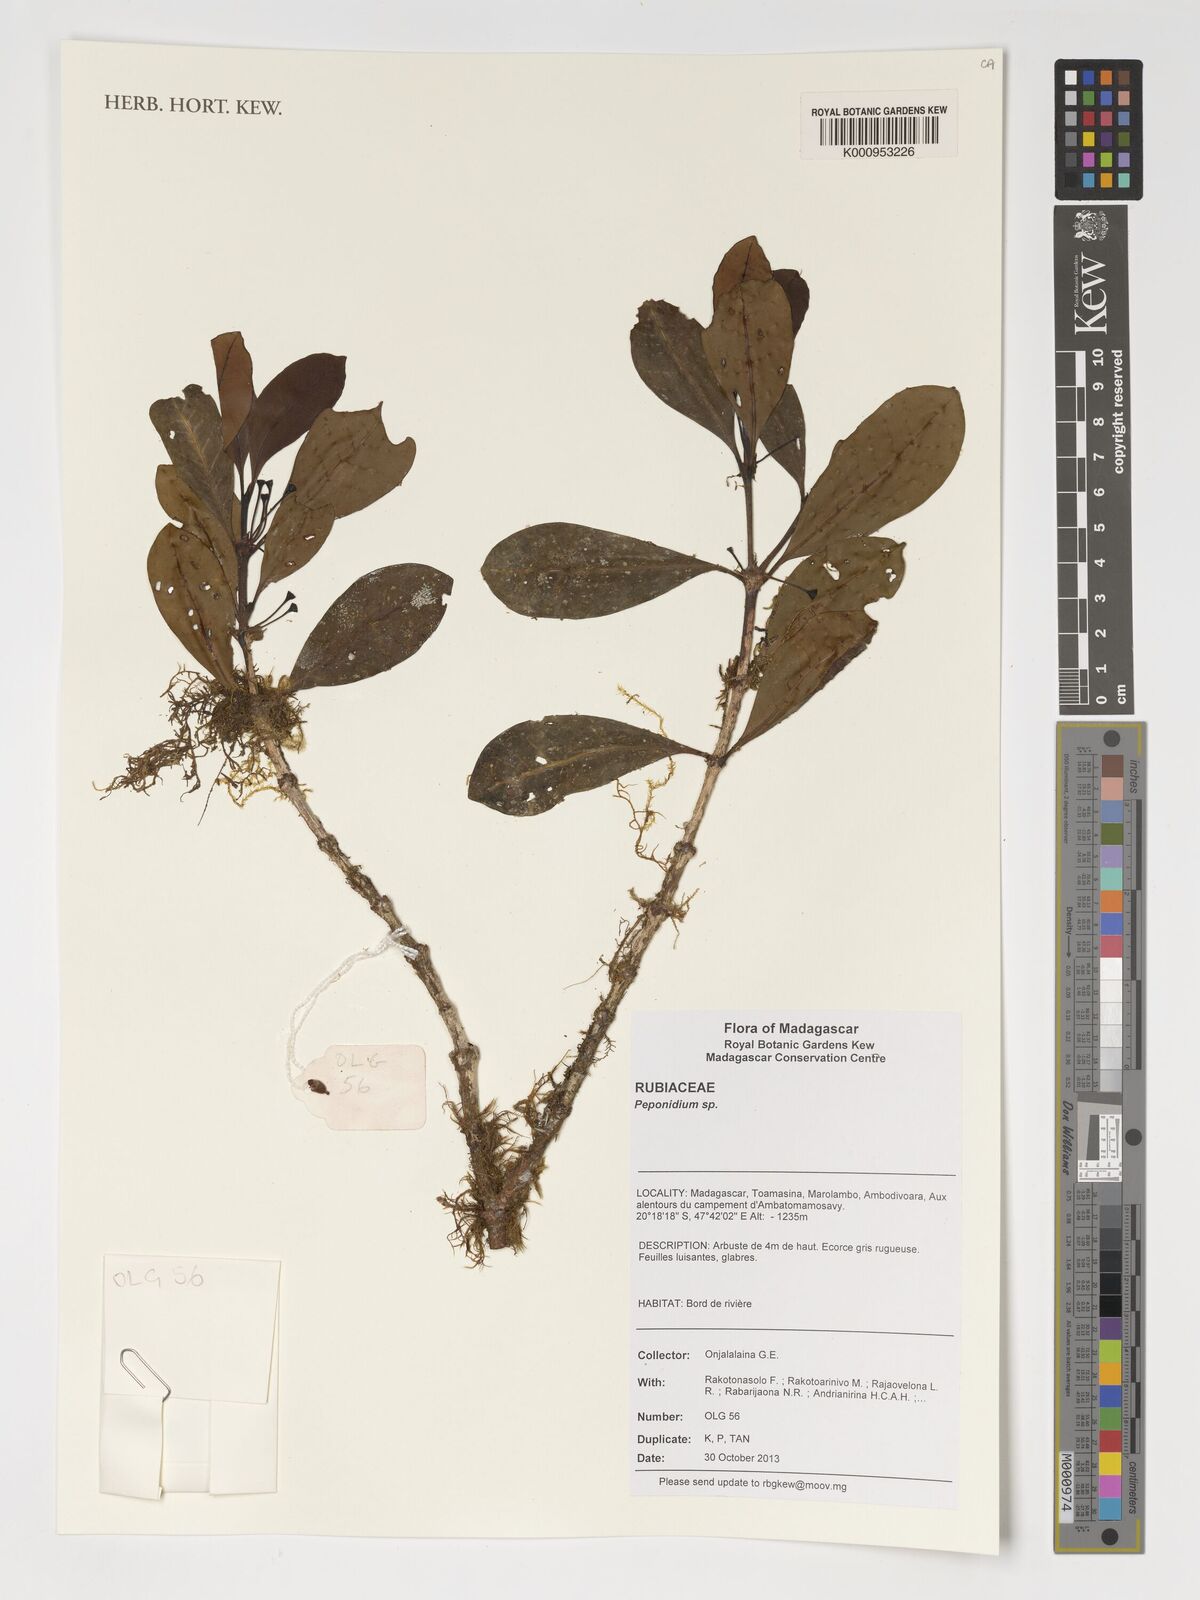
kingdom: Plantae
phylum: Tracheophyta
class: Magnoliopsida
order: Gentianales
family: Rubiaceae
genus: Peponidium
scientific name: Peponidium
